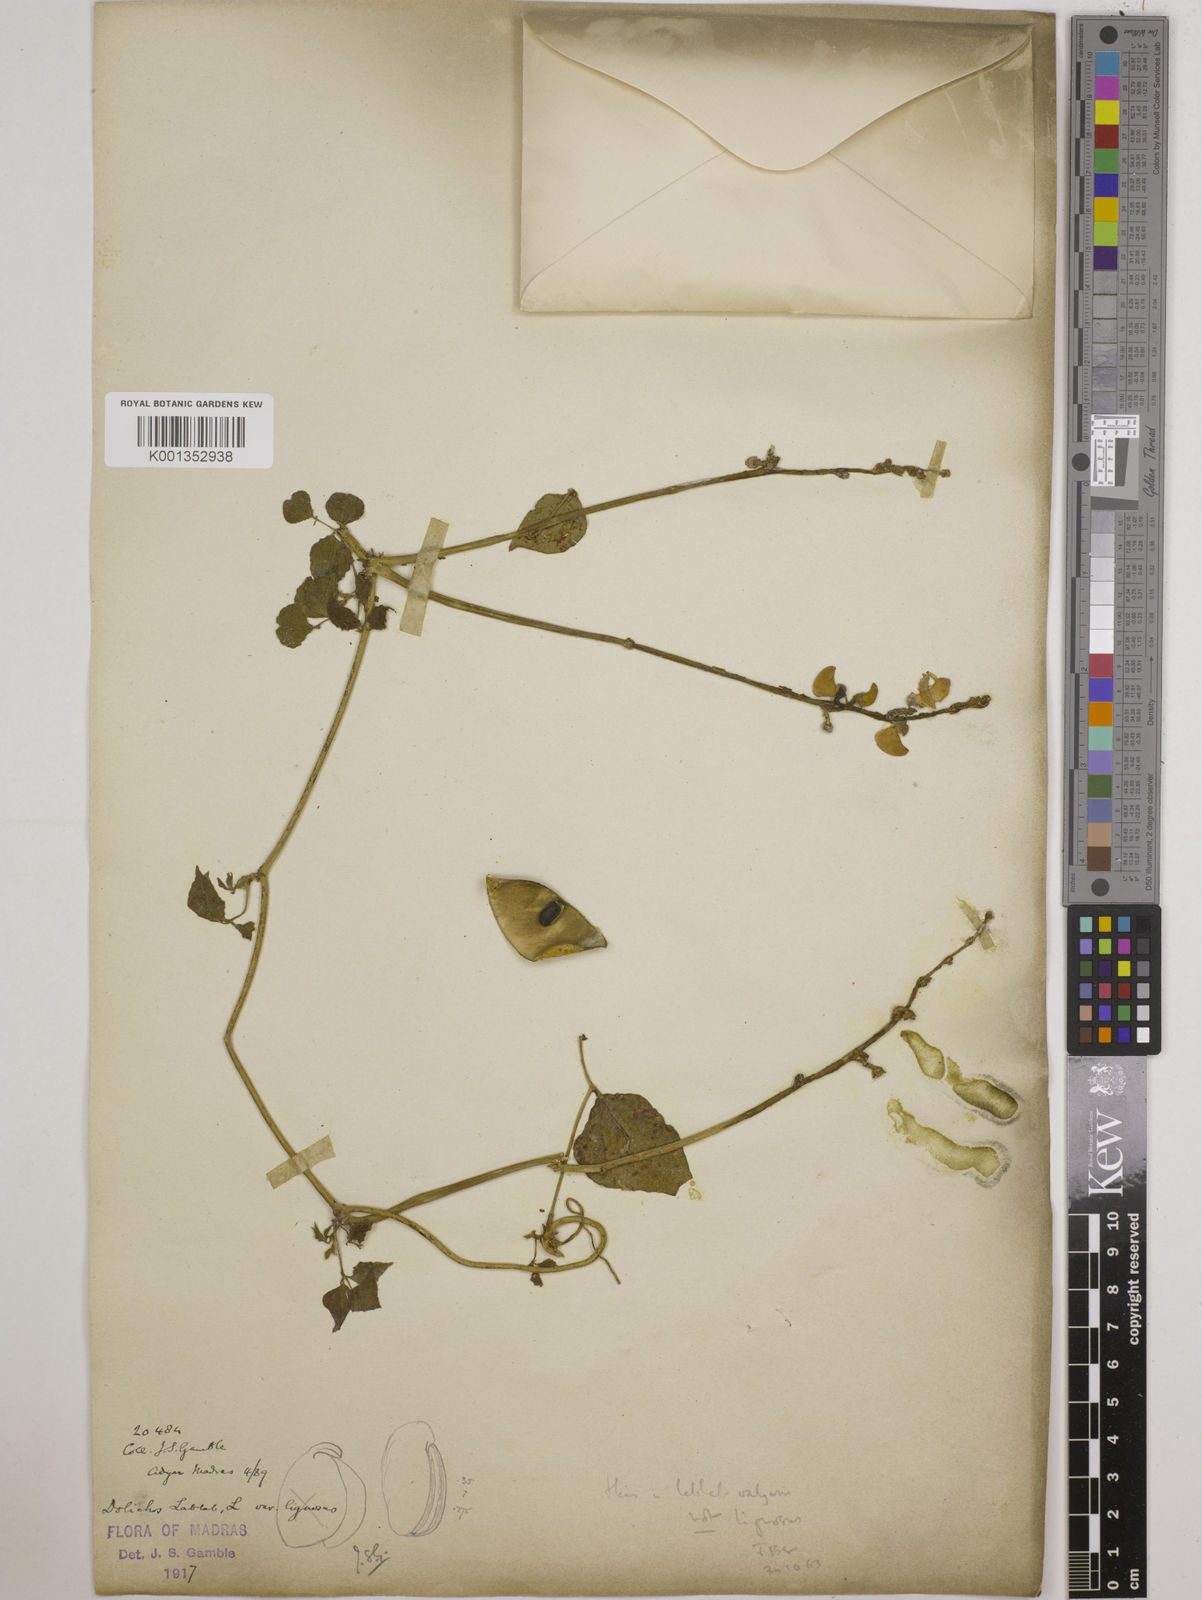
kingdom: Plantae
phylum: Tracheophyta
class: Magnoliopsida
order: Fabales
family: Fabaceae
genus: Lablab
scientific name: Lablab purpureus
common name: Lablab-bean
